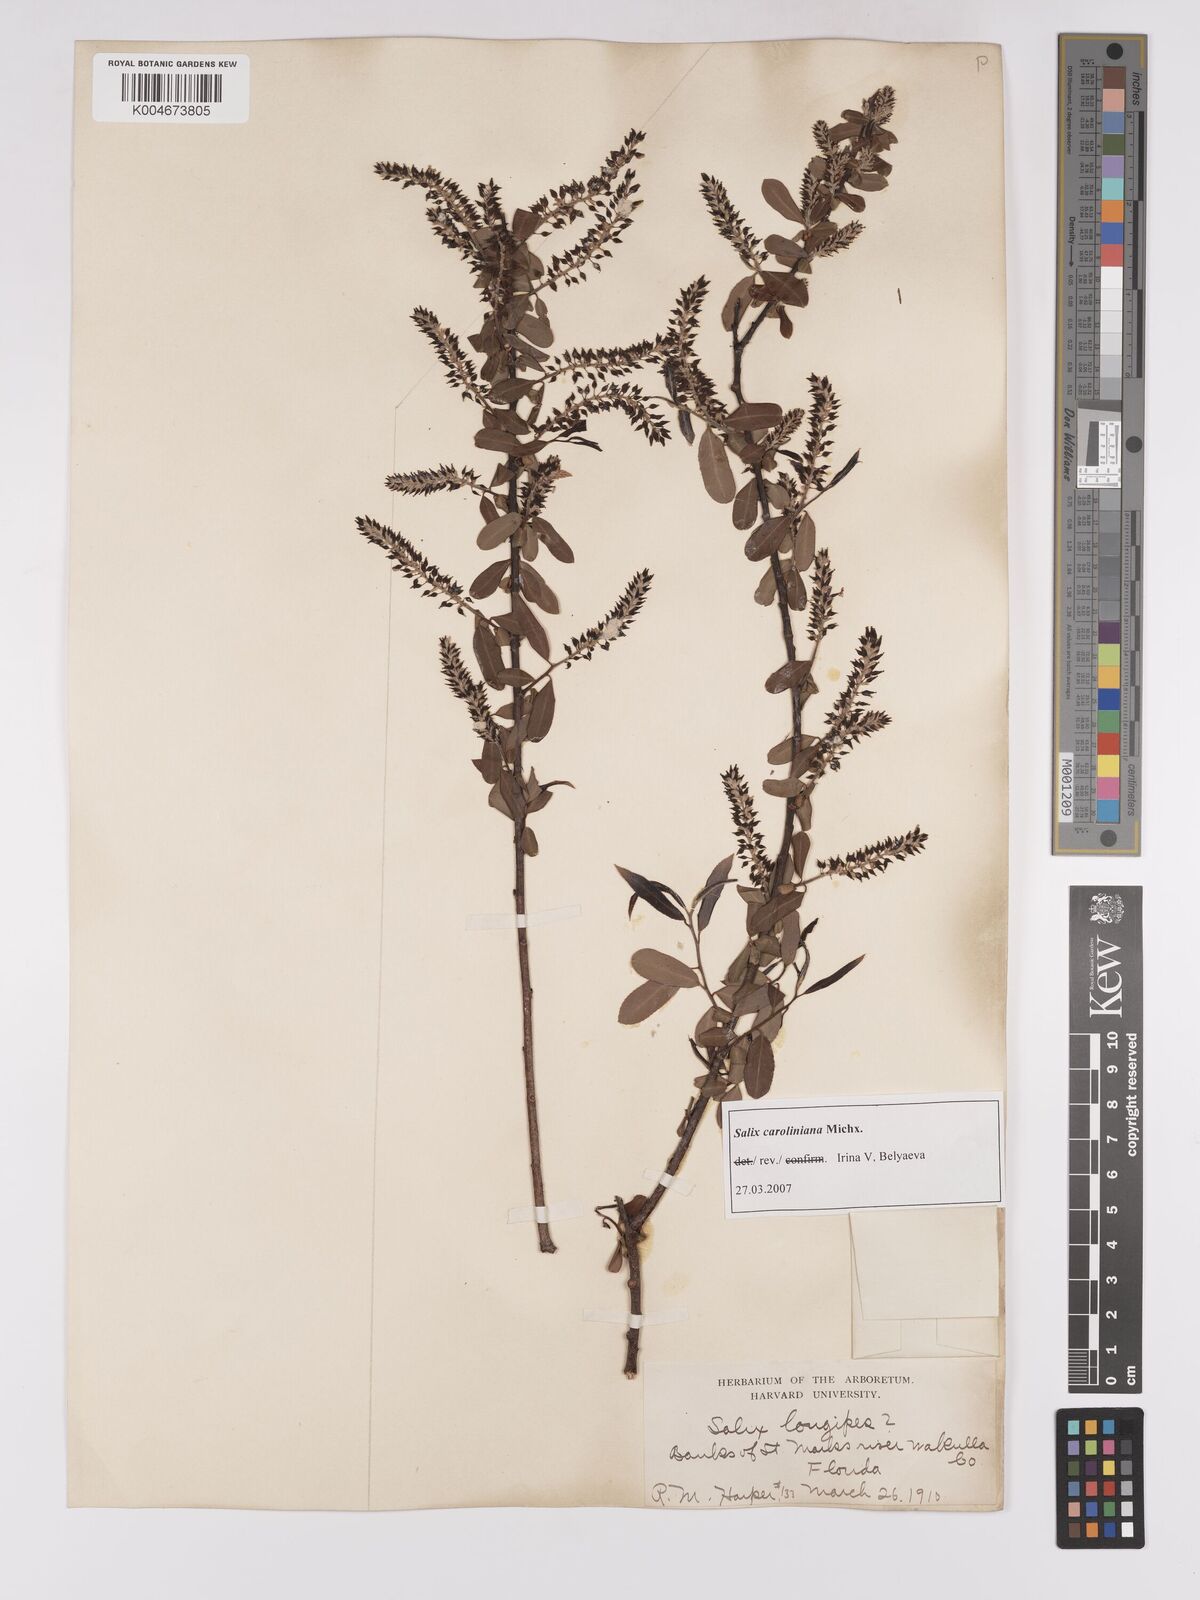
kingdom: Plantae
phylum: Tracheophyta
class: Magnoliopsida
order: Malpighiales
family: Salicaceae
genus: Salix
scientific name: Salix caroliniana
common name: Carolina willow
